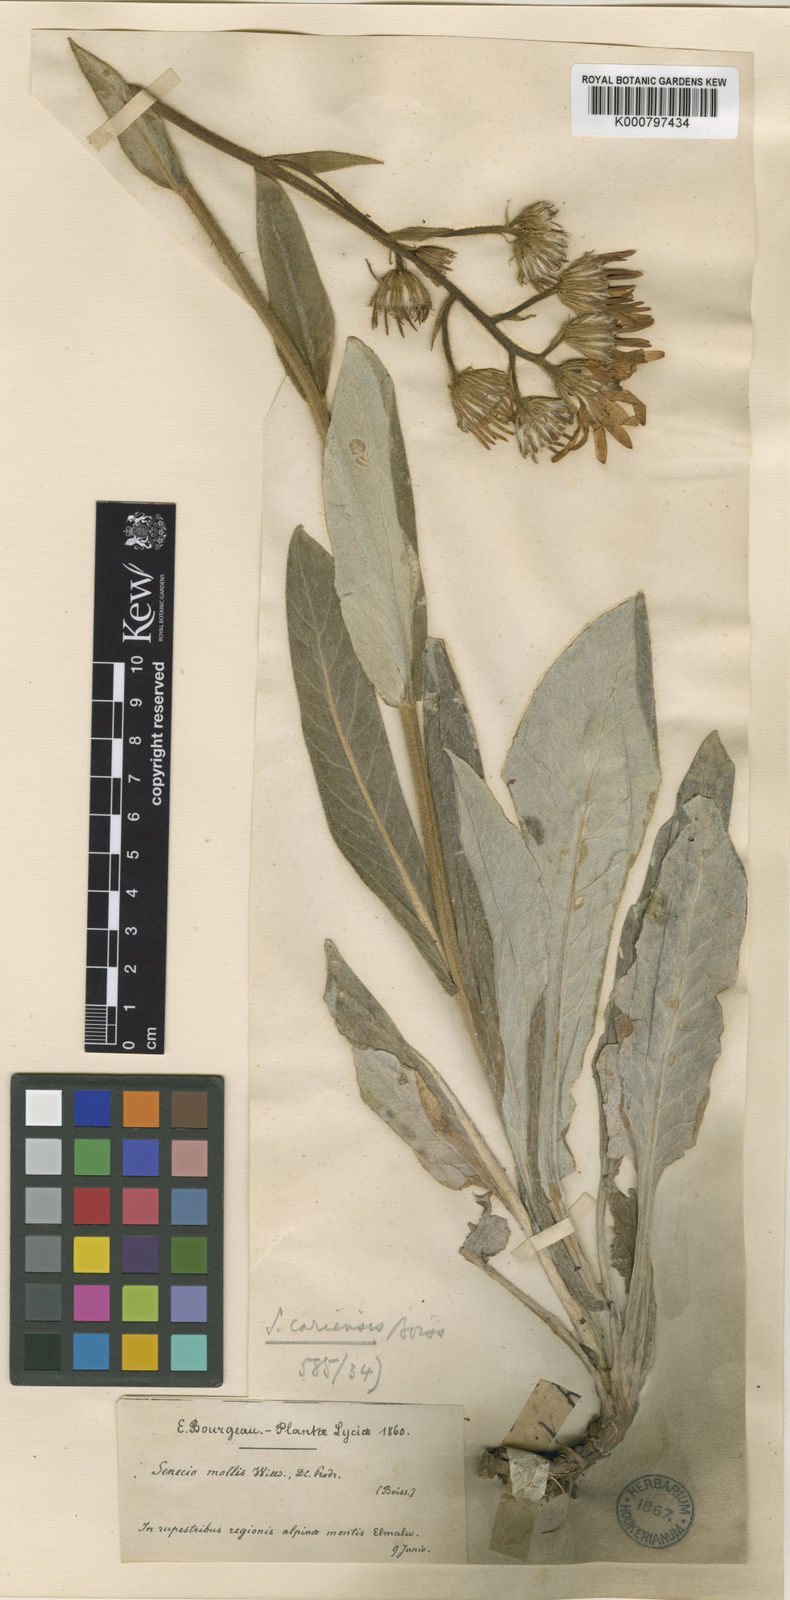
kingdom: Plantae
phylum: Tracheophyta
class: Magnoliopsida
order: Asterales
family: Asteraceae
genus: Turanecio
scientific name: Turanecio cariensis
